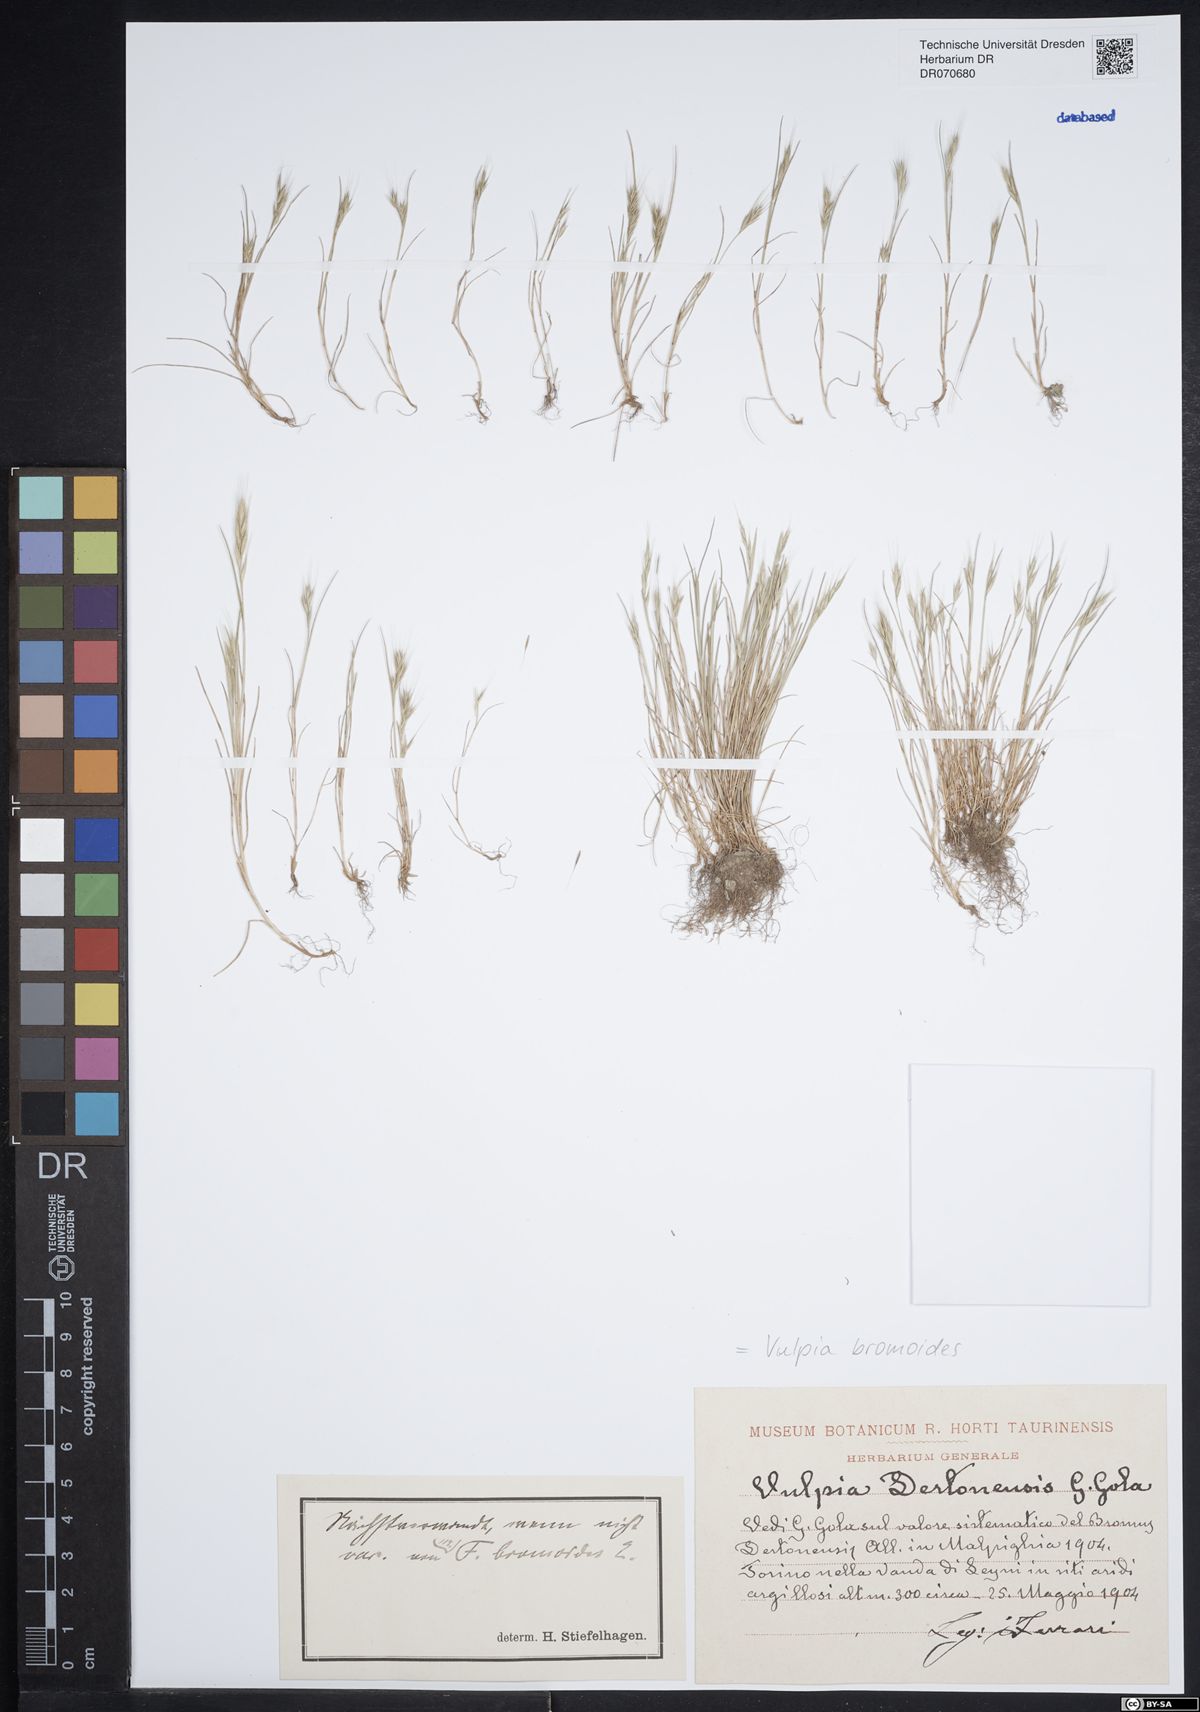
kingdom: Plantae
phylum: Tracheophyta
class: Liliopsida
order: Poales
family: Poaceae
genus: Festuca
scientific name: Festuca bromoides
